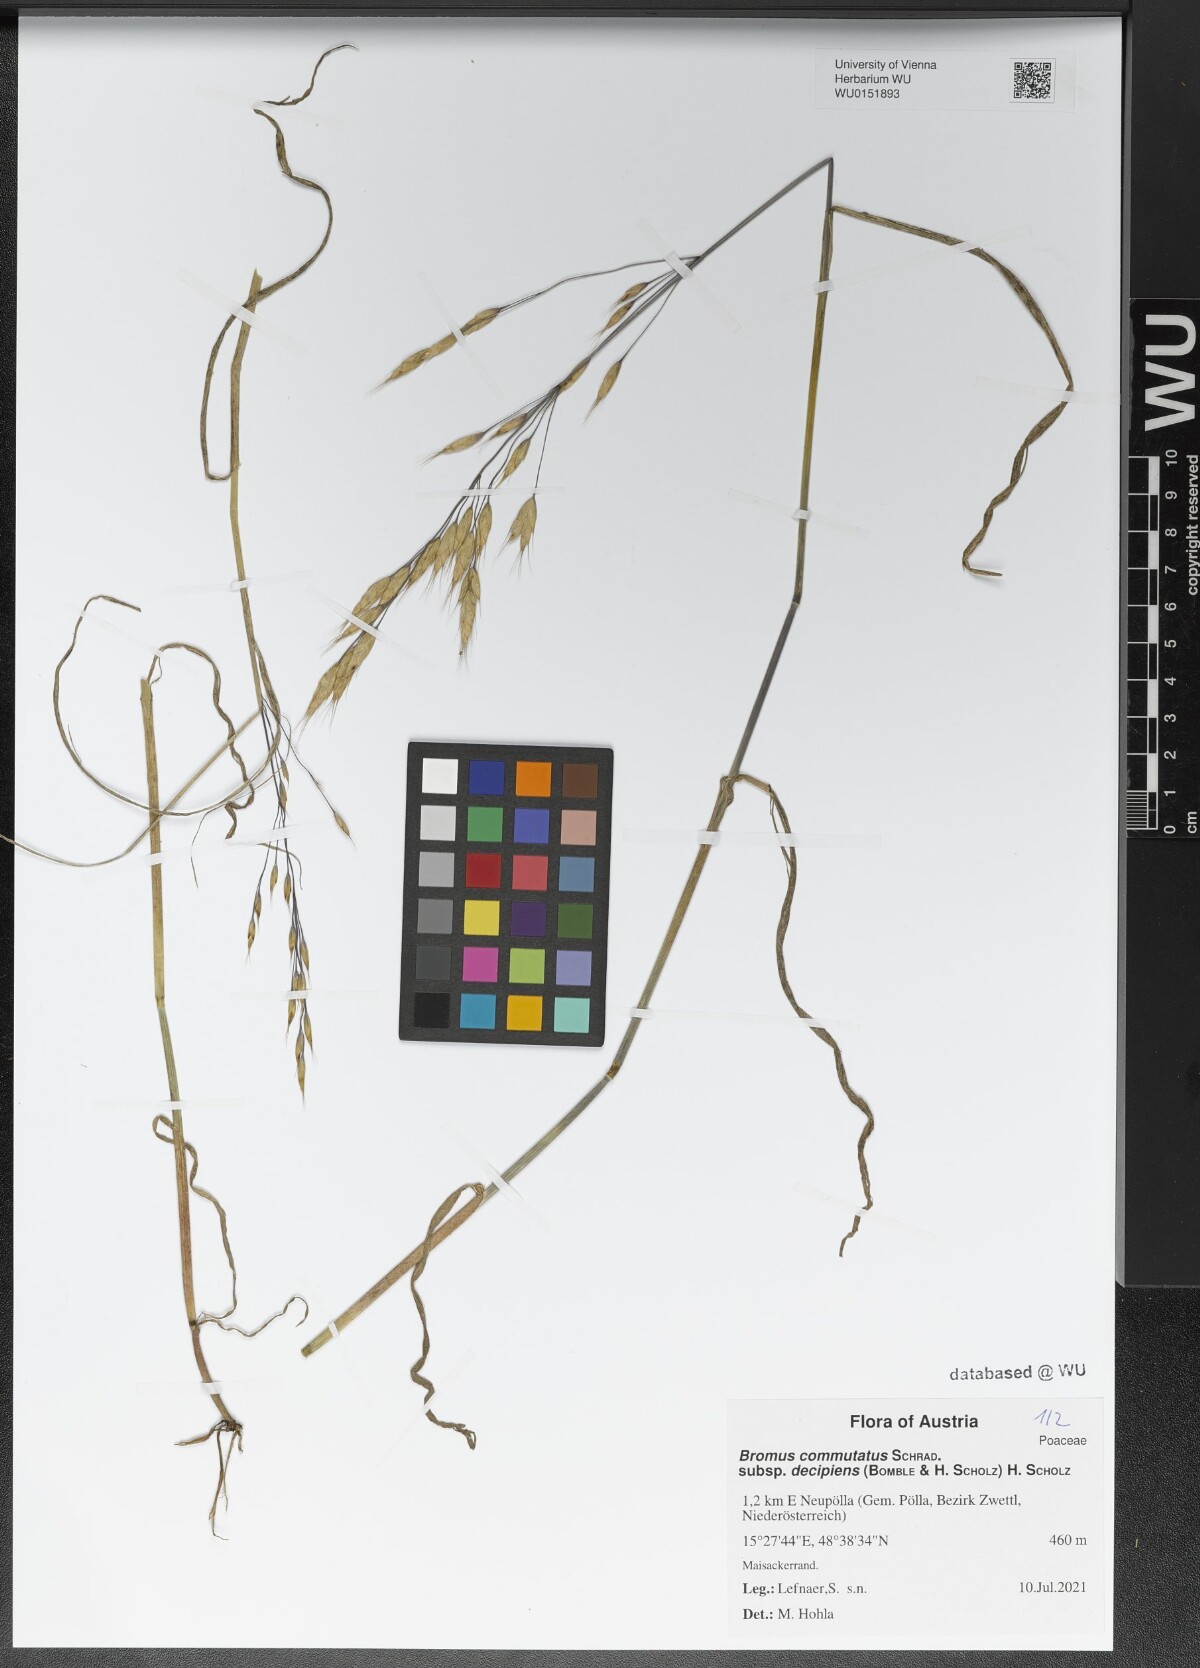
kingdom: Plantae
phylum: Tracheophyta
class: Liliopsida
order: Poales
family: Poaceae
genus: Bromus
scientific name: Bromus commutatus
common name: Meadow brome
